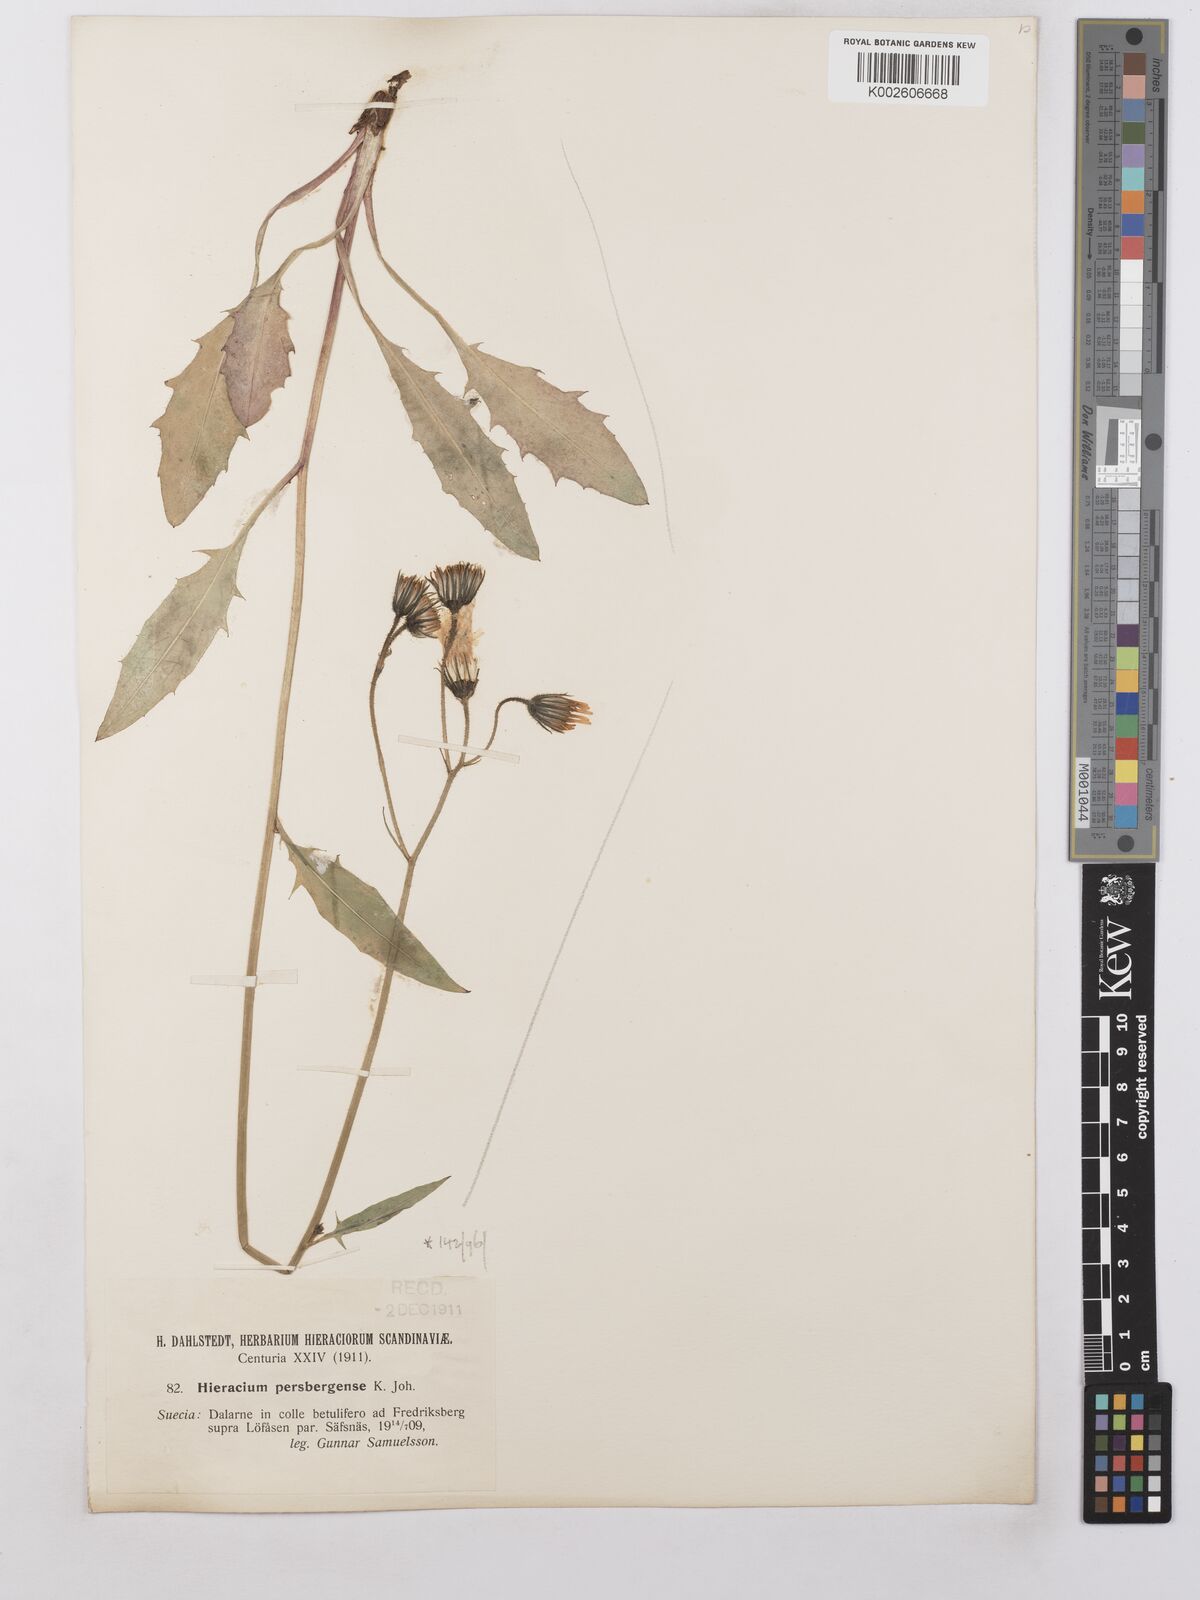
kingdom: Plantae
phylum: Tracheophyta
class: Magnoliopsida
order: Asterales
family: Asteraceae
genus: Hieracium
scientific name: Hieracium lachenalii
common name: Common hawkweed
